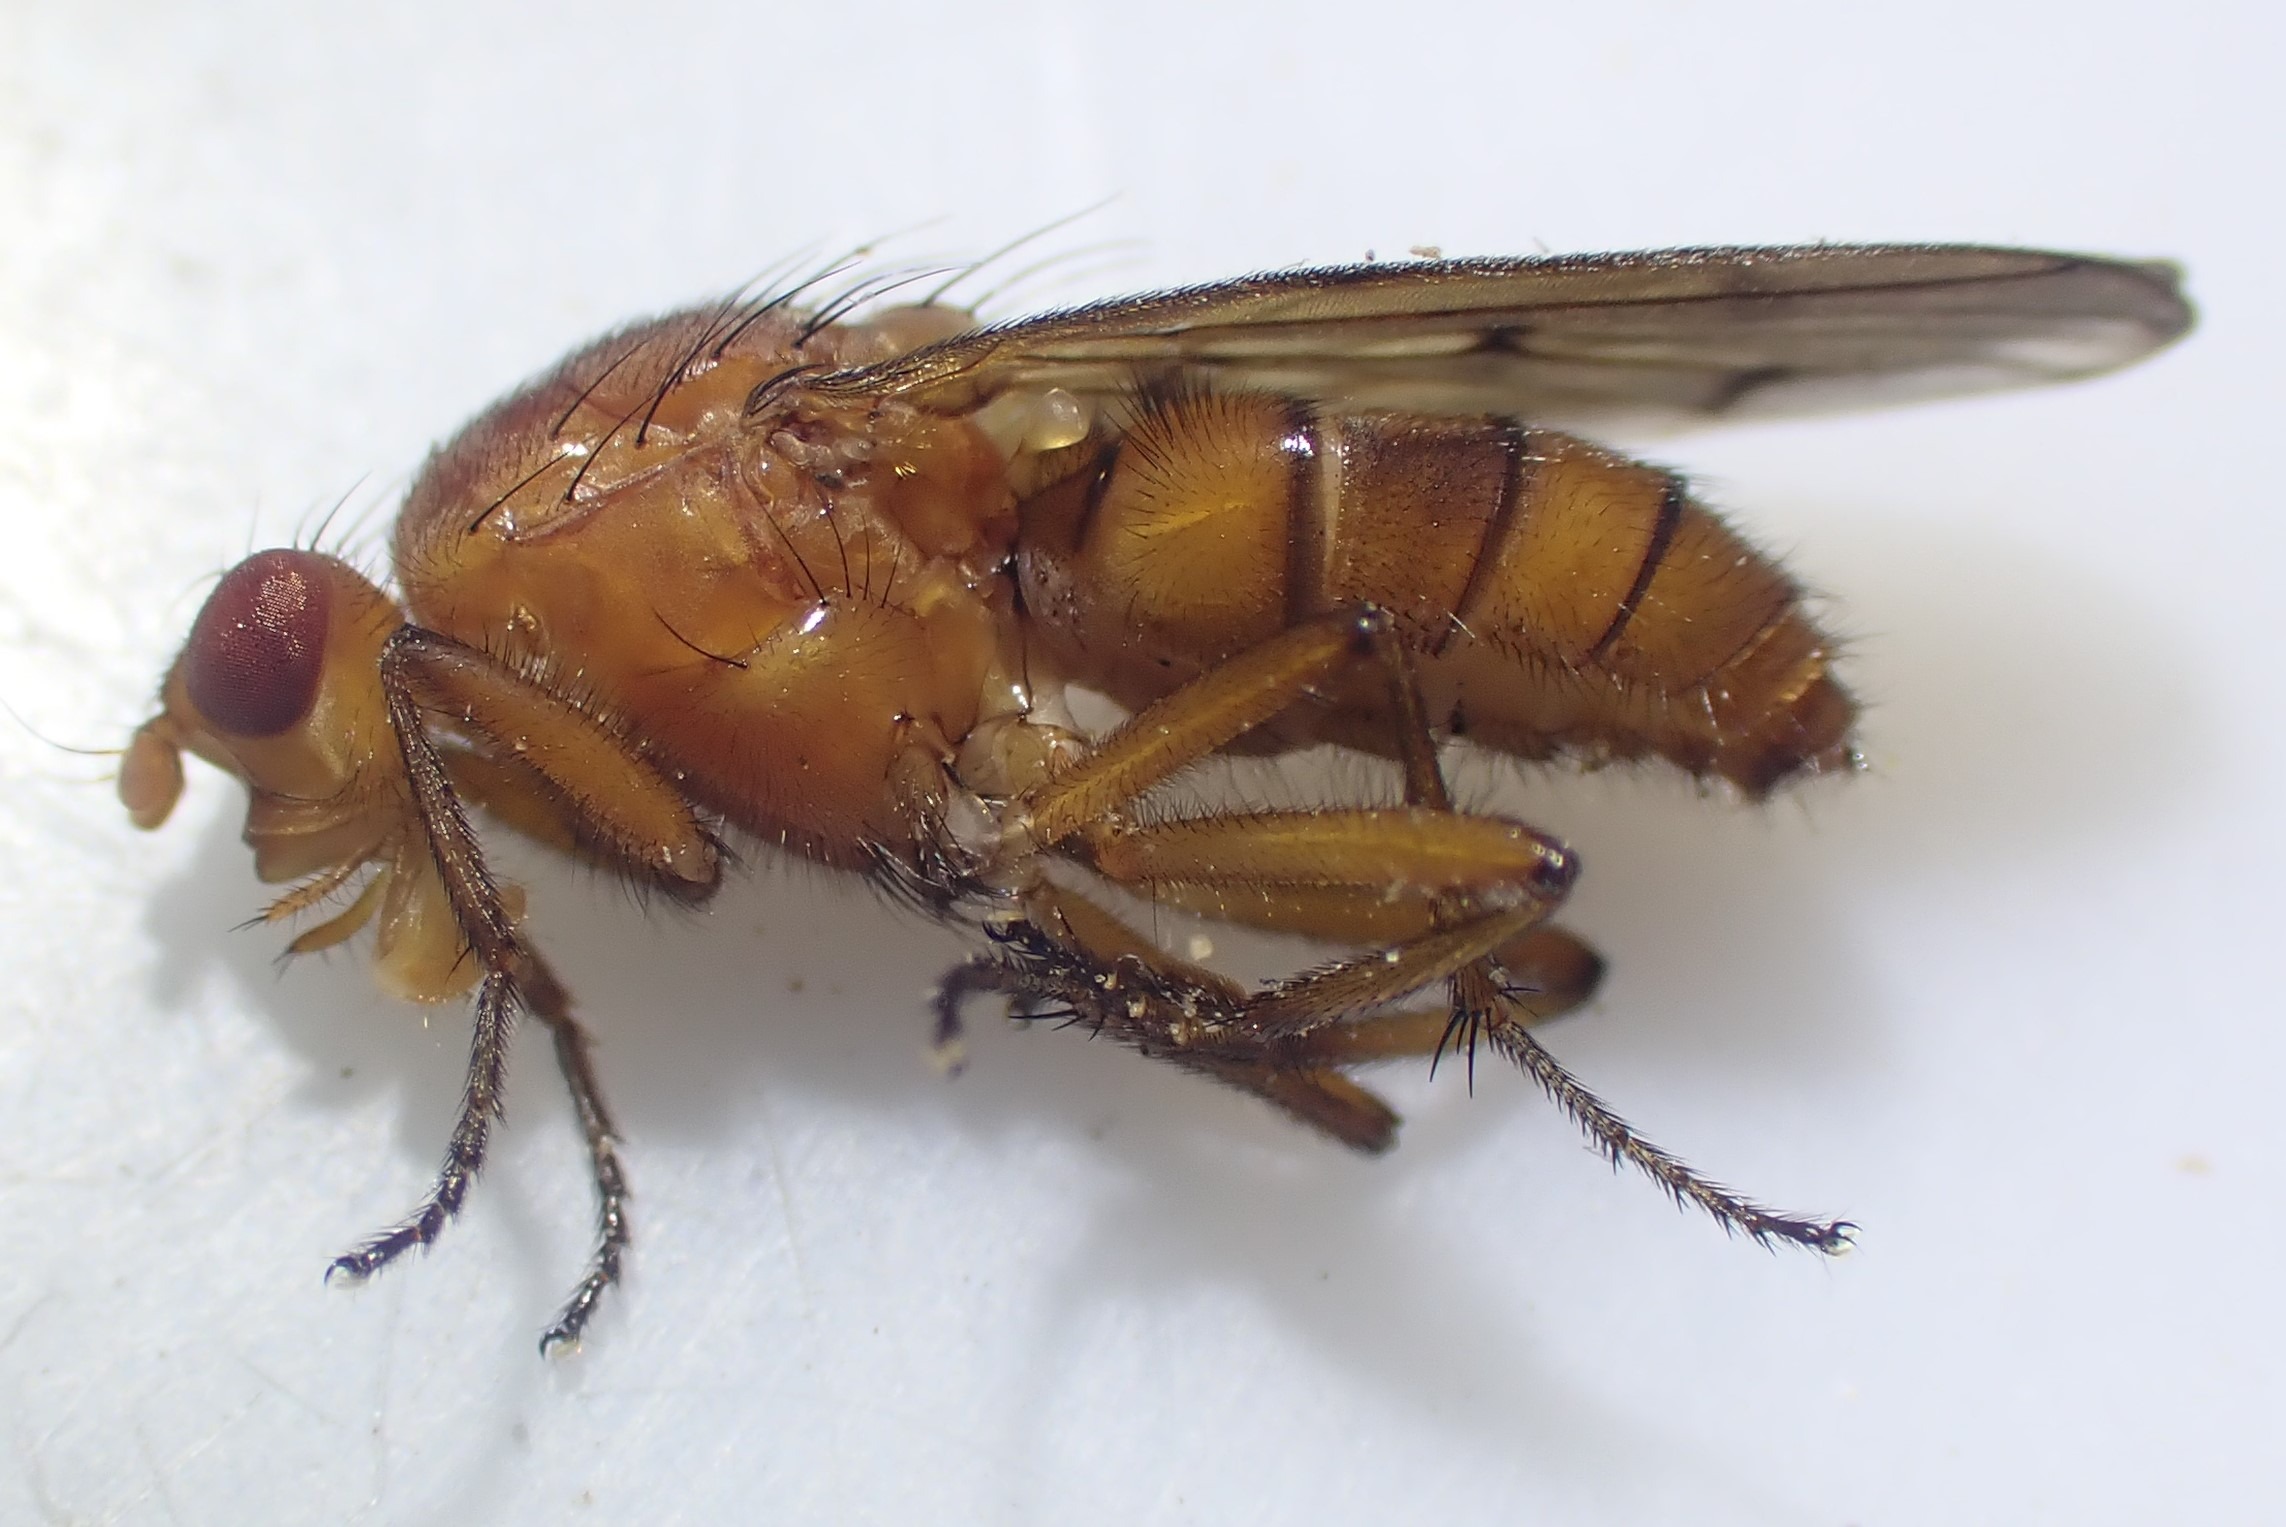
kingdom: Animalia
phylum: Arthropoda
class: Insecta
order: Diptera
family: Dryomyzidae
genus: Dryomyza
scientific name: Dryomyza anilis
